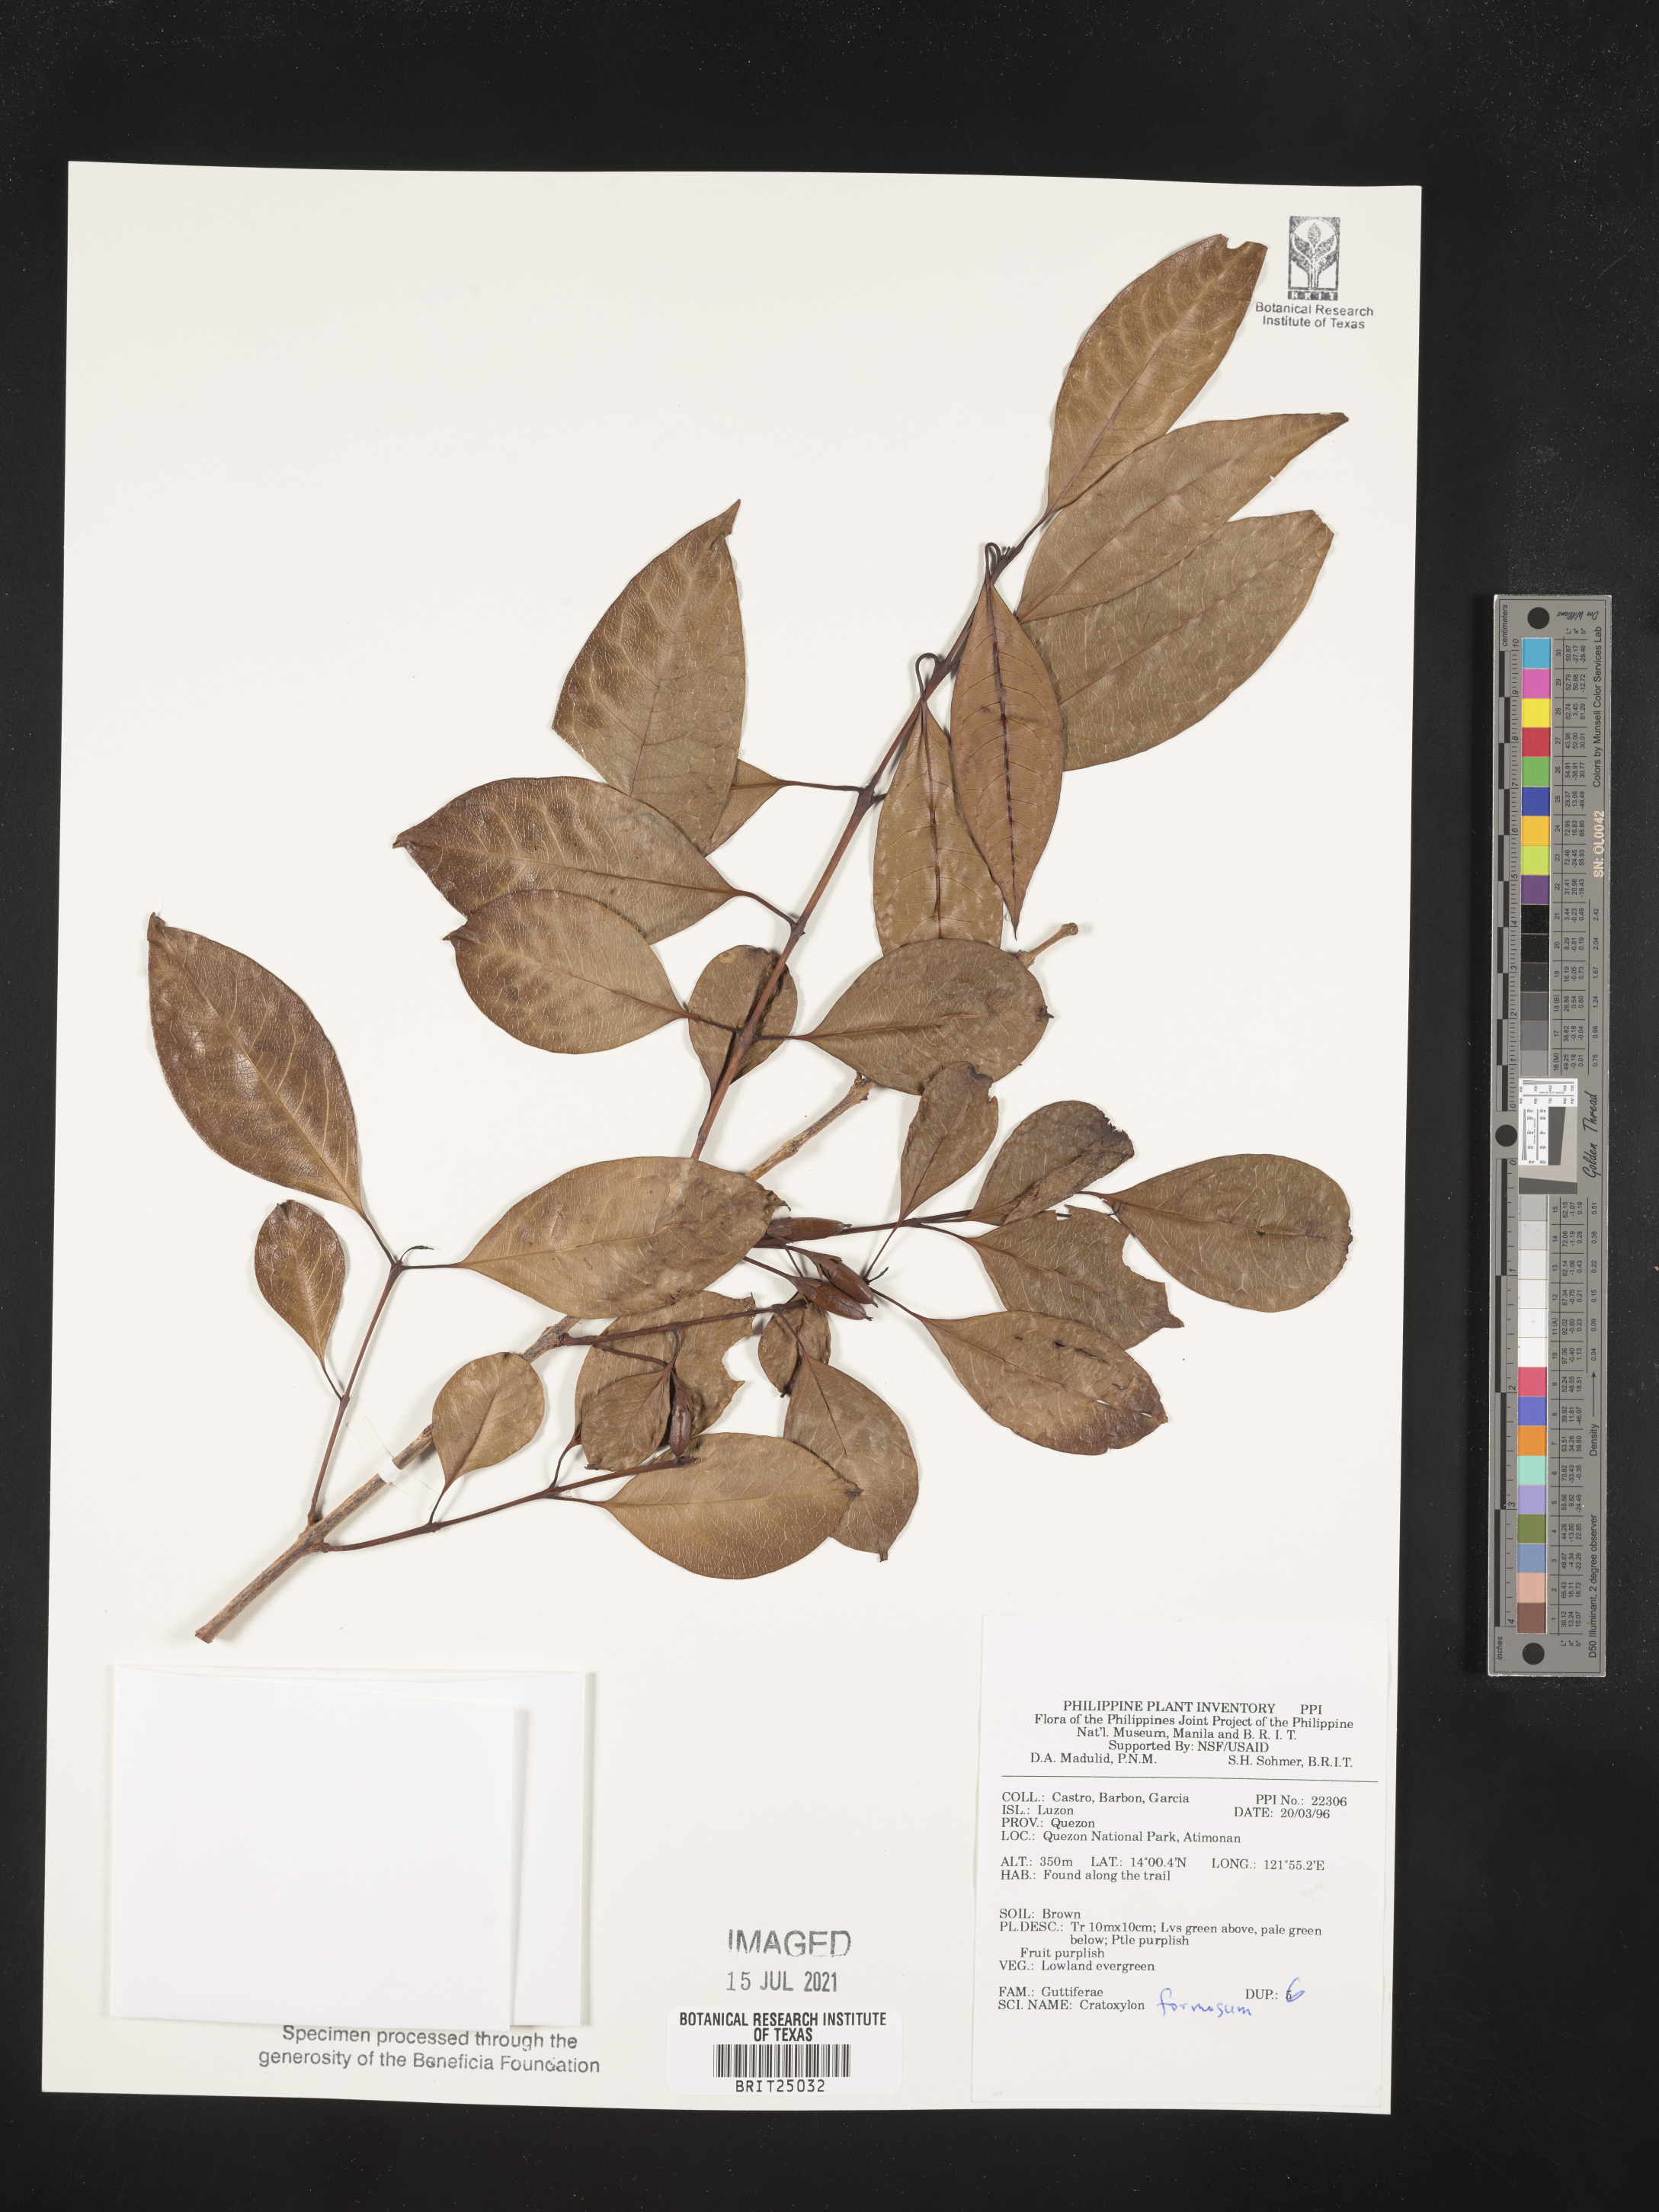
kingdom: Plantae
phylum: Tracheophyta
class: Magnoliopsida
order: Malpighiales
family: Hypericaceae
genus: Cratoxylum
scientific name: Cratoxylum formosum
